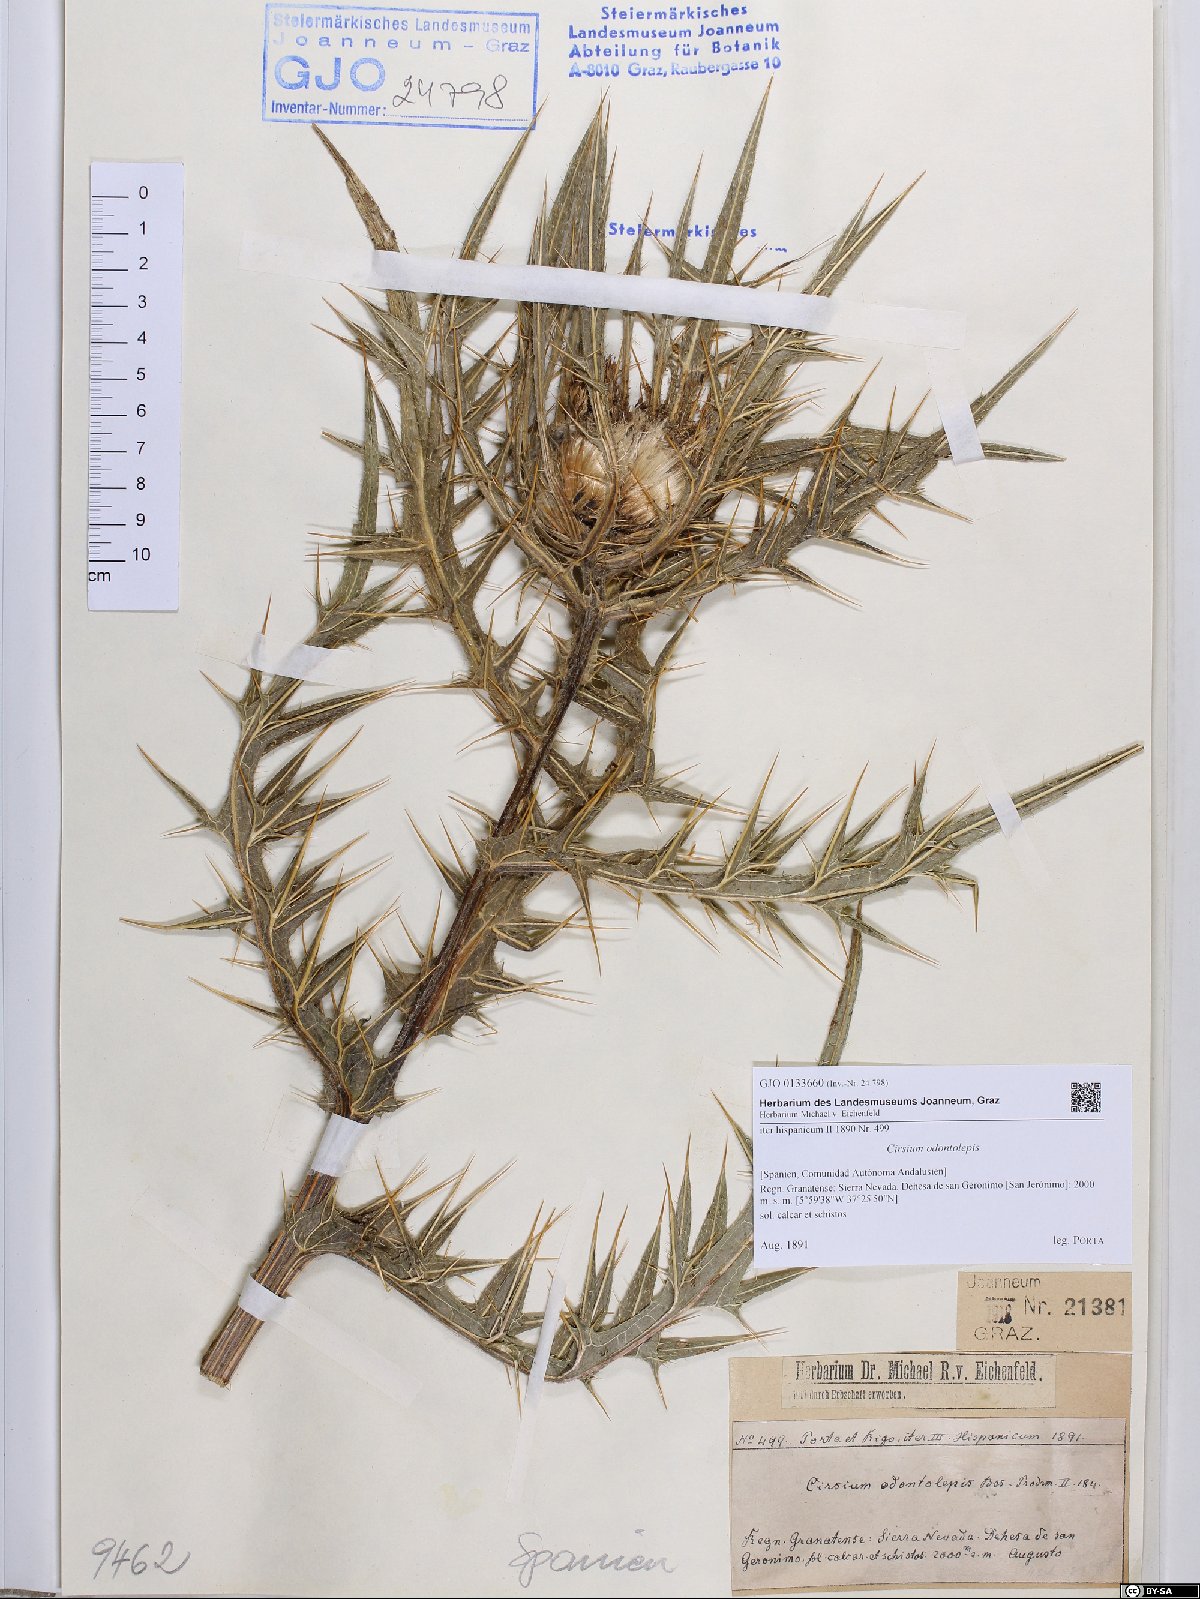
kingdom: Plantae
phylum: Tracheophyta
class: Magnoliopsida
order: Asterales
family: Asteraceae
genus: Lophiolepis
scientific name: Lophiolepis odontolepis
